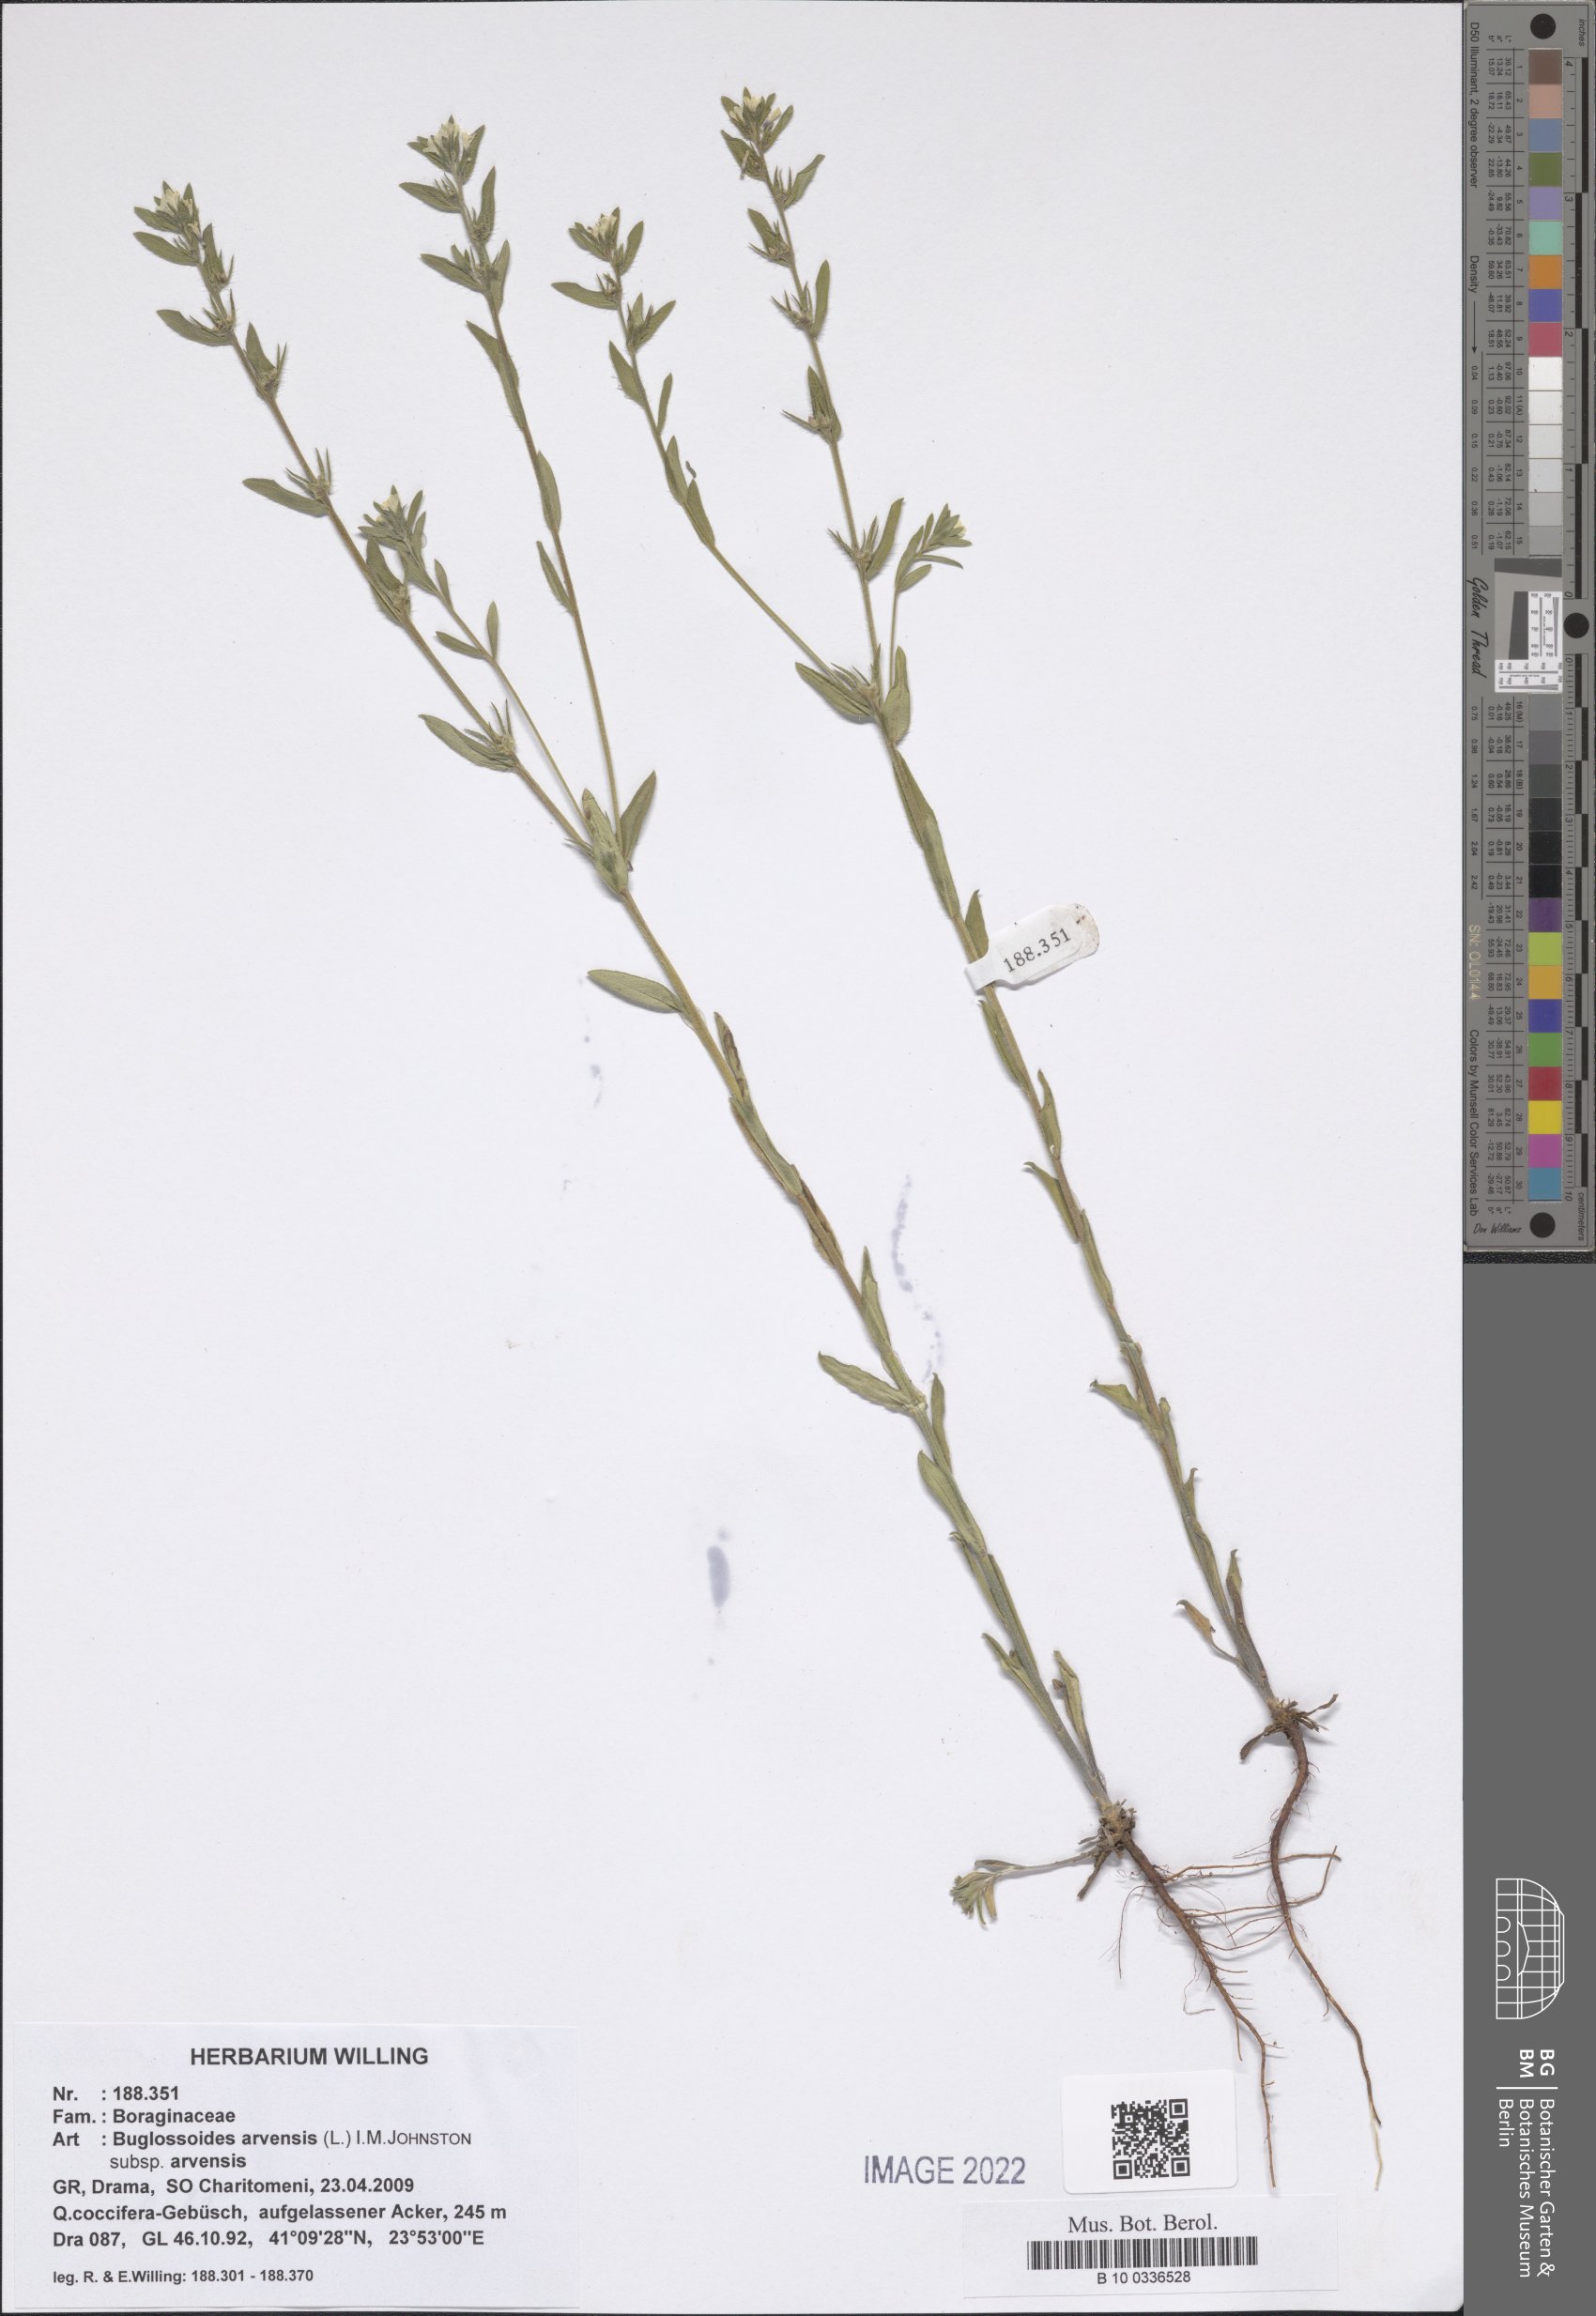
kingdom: Plantae
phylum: Tracheophyta
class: Magnoliopsida
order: Boraginales
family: Boraginaceae
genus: Buglossoides
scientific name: Buglossoides arvensis
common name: Corn gromwell
